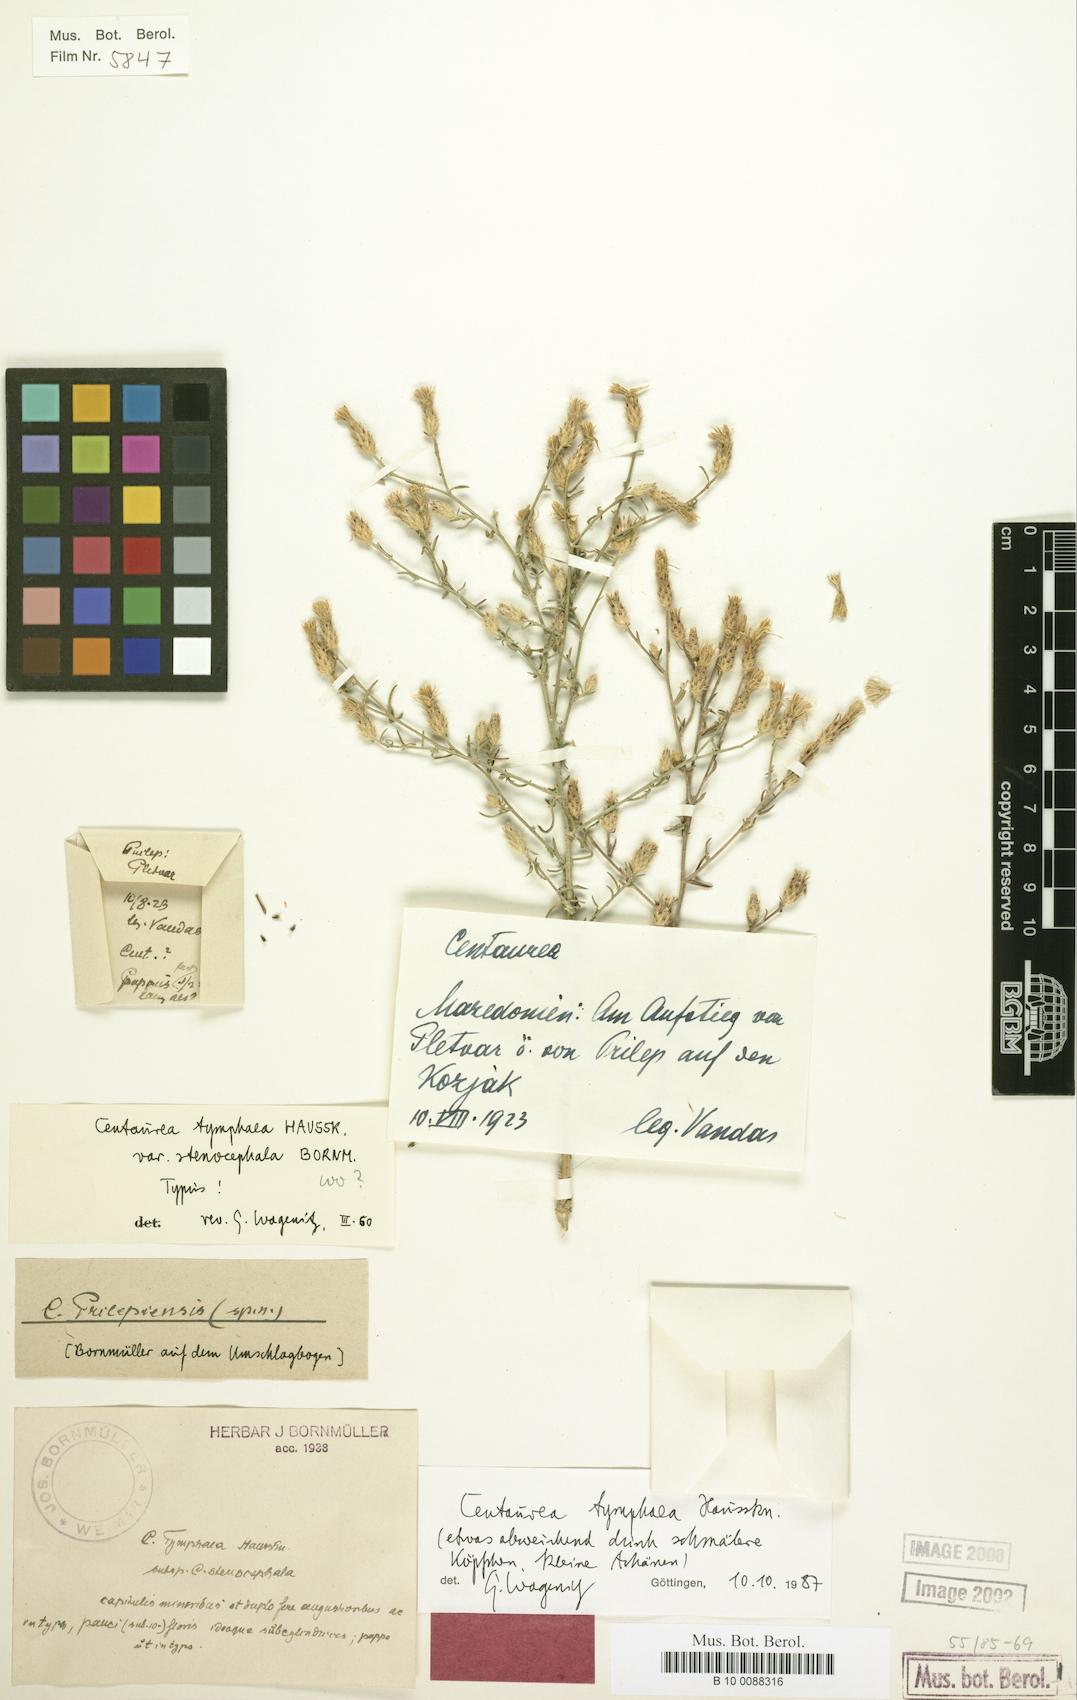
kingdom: Plantae
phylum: Tracheophyta
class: Magnoliopsida
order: Asterales
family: Asteraceae
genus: Centaurea
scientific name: Centaurea tymphaea
